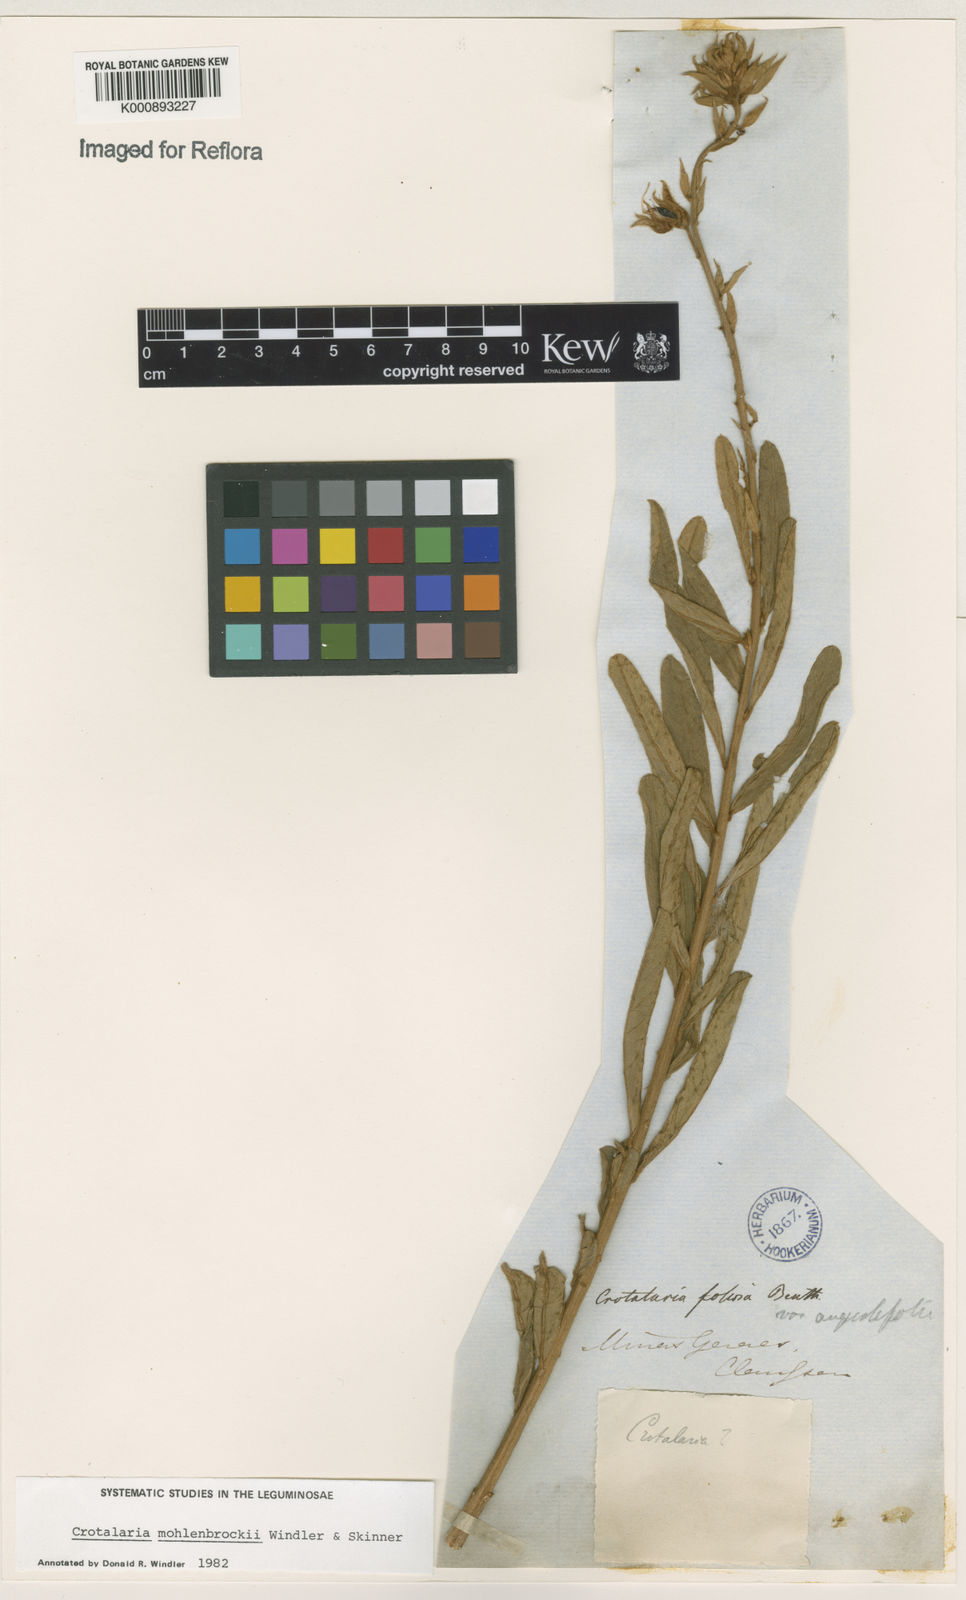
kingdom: Plantae
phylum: Tracheophyta
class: Magnoliopsida
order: Fabales
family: Fabaceae
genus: Crotalaria
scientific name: Crotalaria martiana
